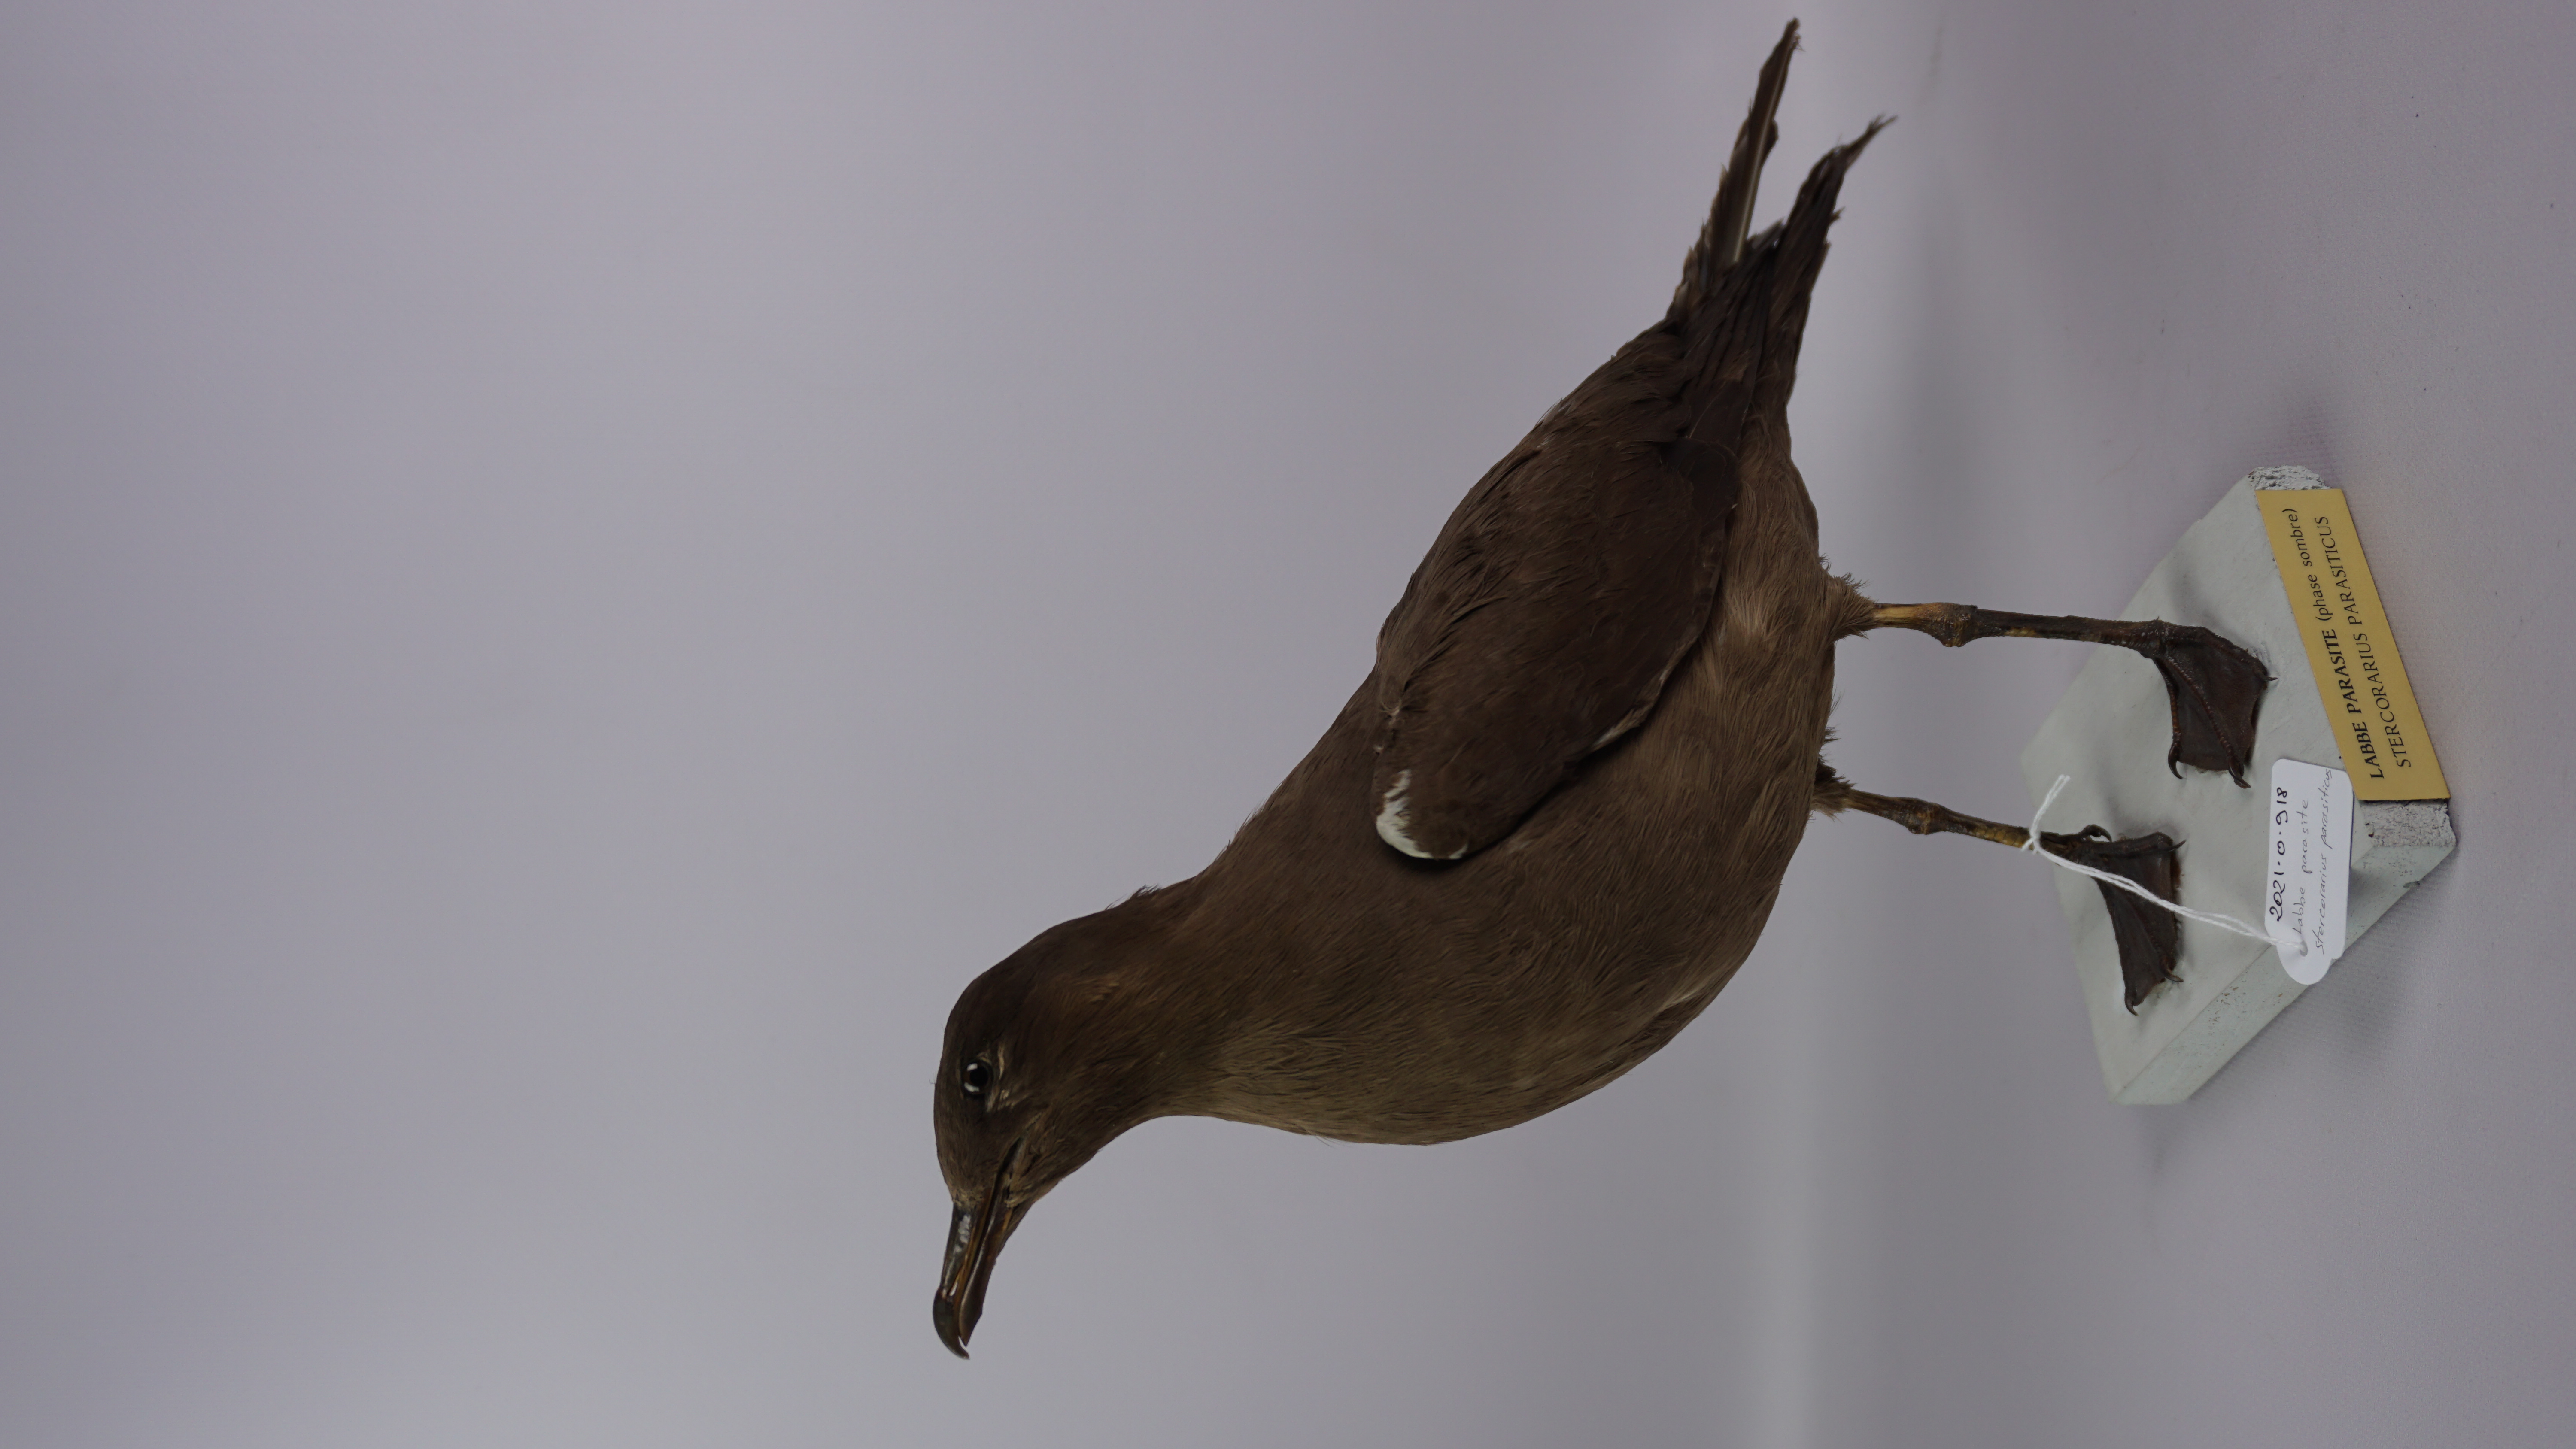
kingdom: Animalia
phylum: Chordata
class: Aves
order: Charadriiformes
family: Stercorariidae
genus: Stercorarius
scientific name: Stercorarius parasiticus
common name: Parasitic jaeger
